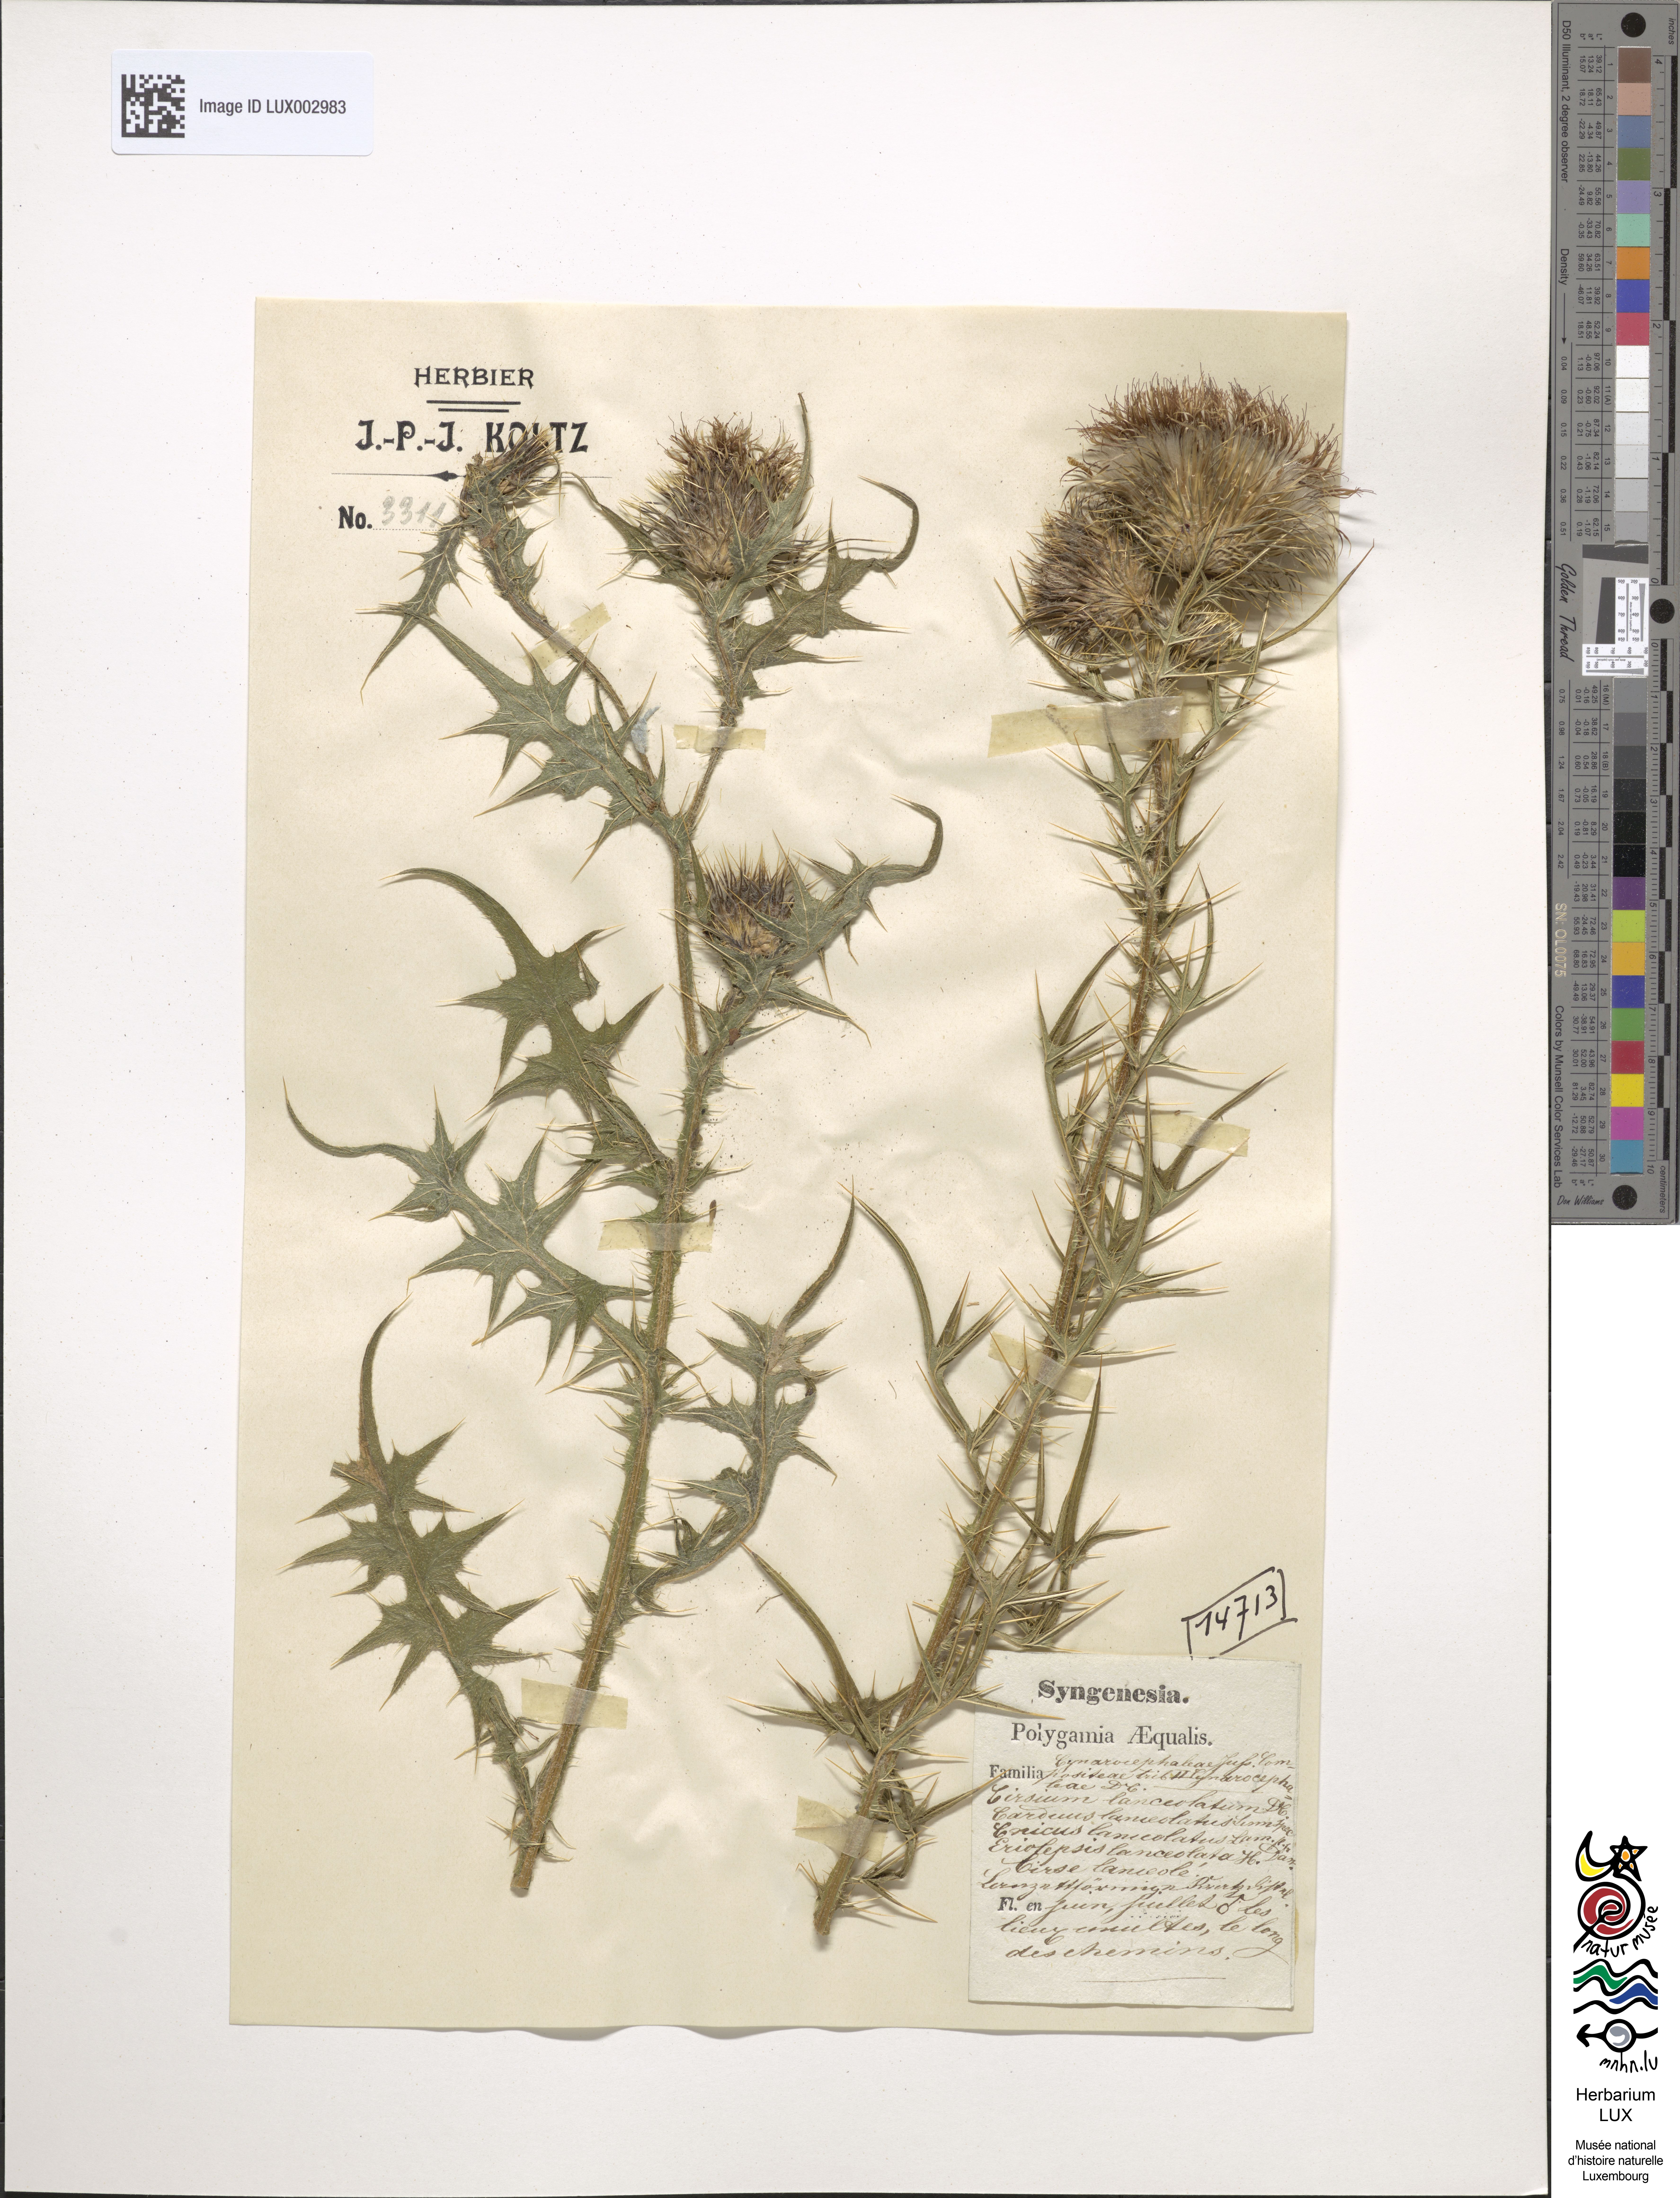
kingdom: Plantae
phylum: Tracheophyta
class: Magnoliopsida
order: Asterales
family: Asteraceae
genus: Cirsium
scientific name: Cirsium vulgare
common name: Bull thistle
